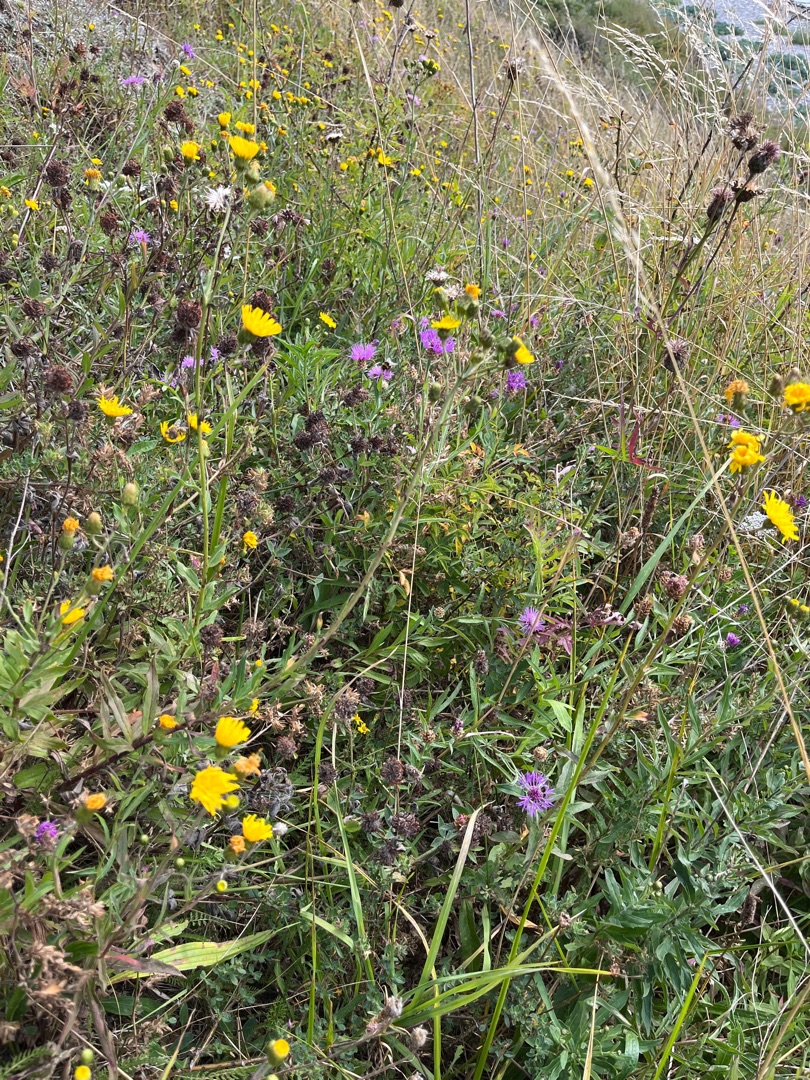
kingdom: Plantae
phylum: Tracheophyta
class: Magnoliopsida
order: Asterales
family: Asteraceae
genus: Centaurea
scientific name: Centaurea jacea
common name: Almindelig knopurt
